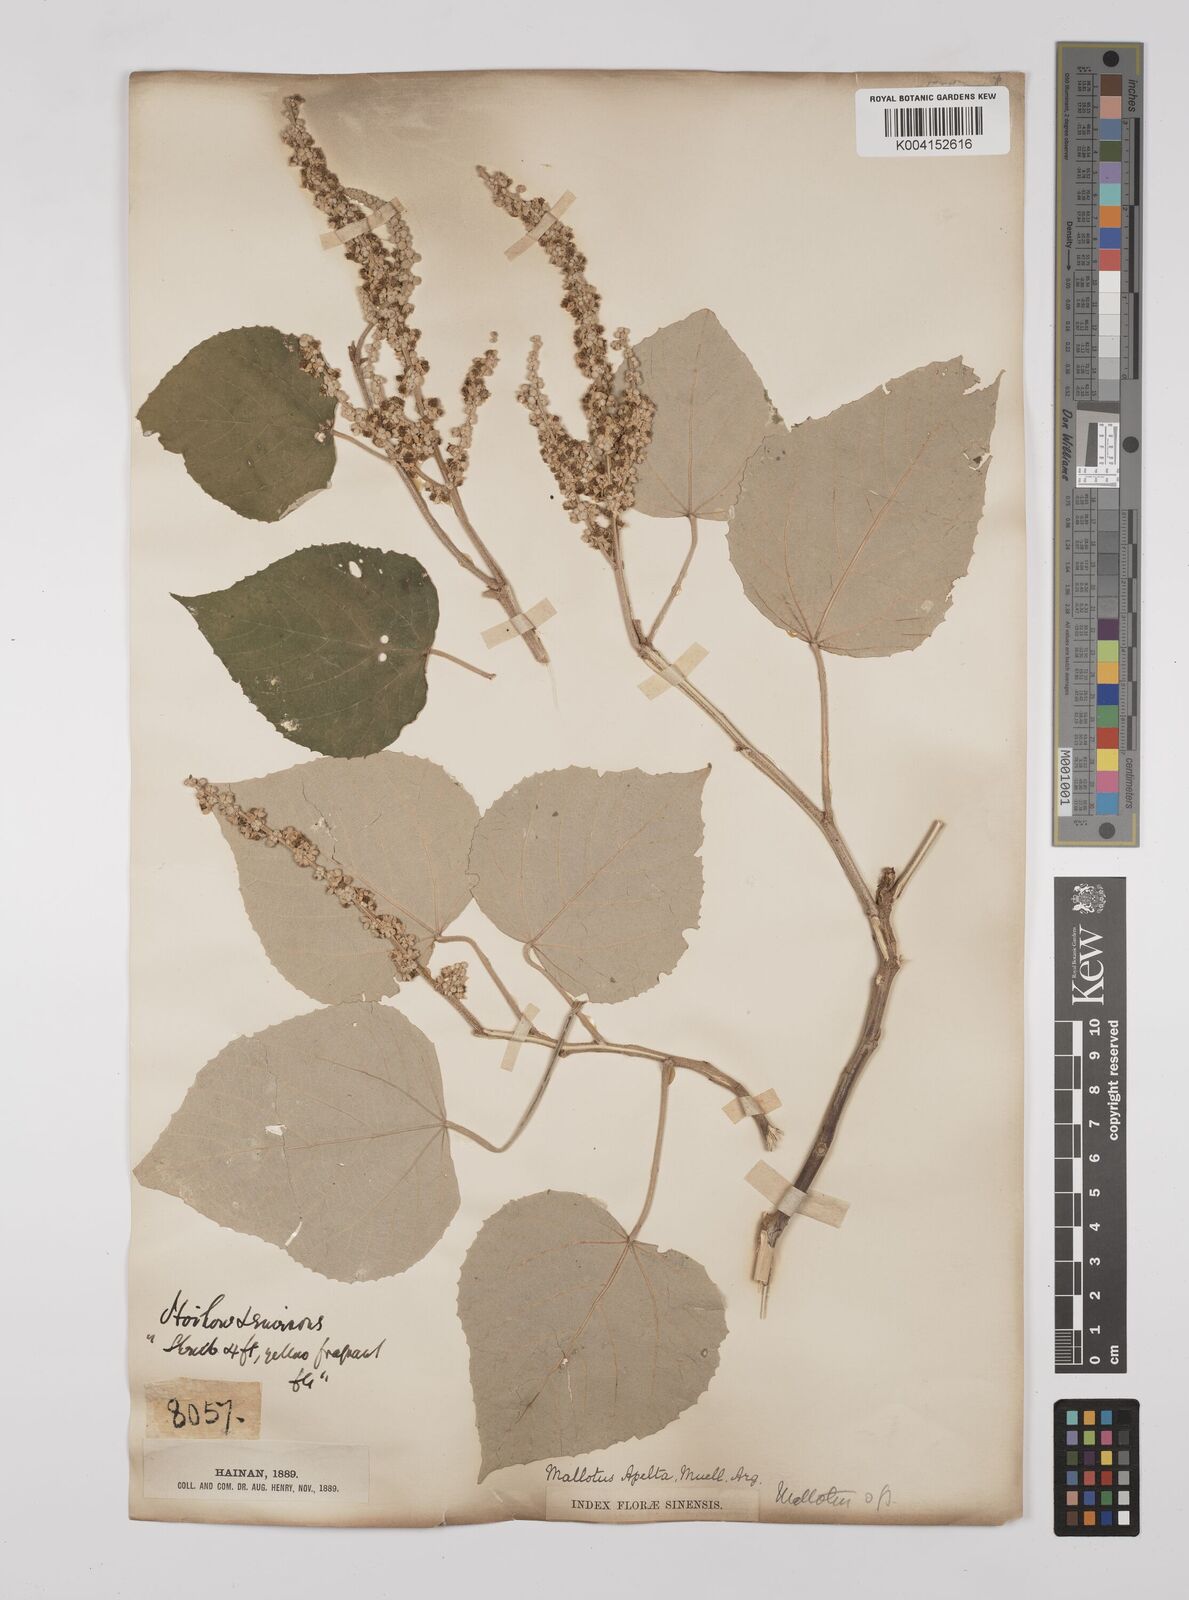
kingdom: Plantae
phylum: Tracheophyta
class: Magnoliopsida
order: Malpighiales
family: Euphorbiaceae
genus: Mallotus
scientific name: Mallotus apelta
